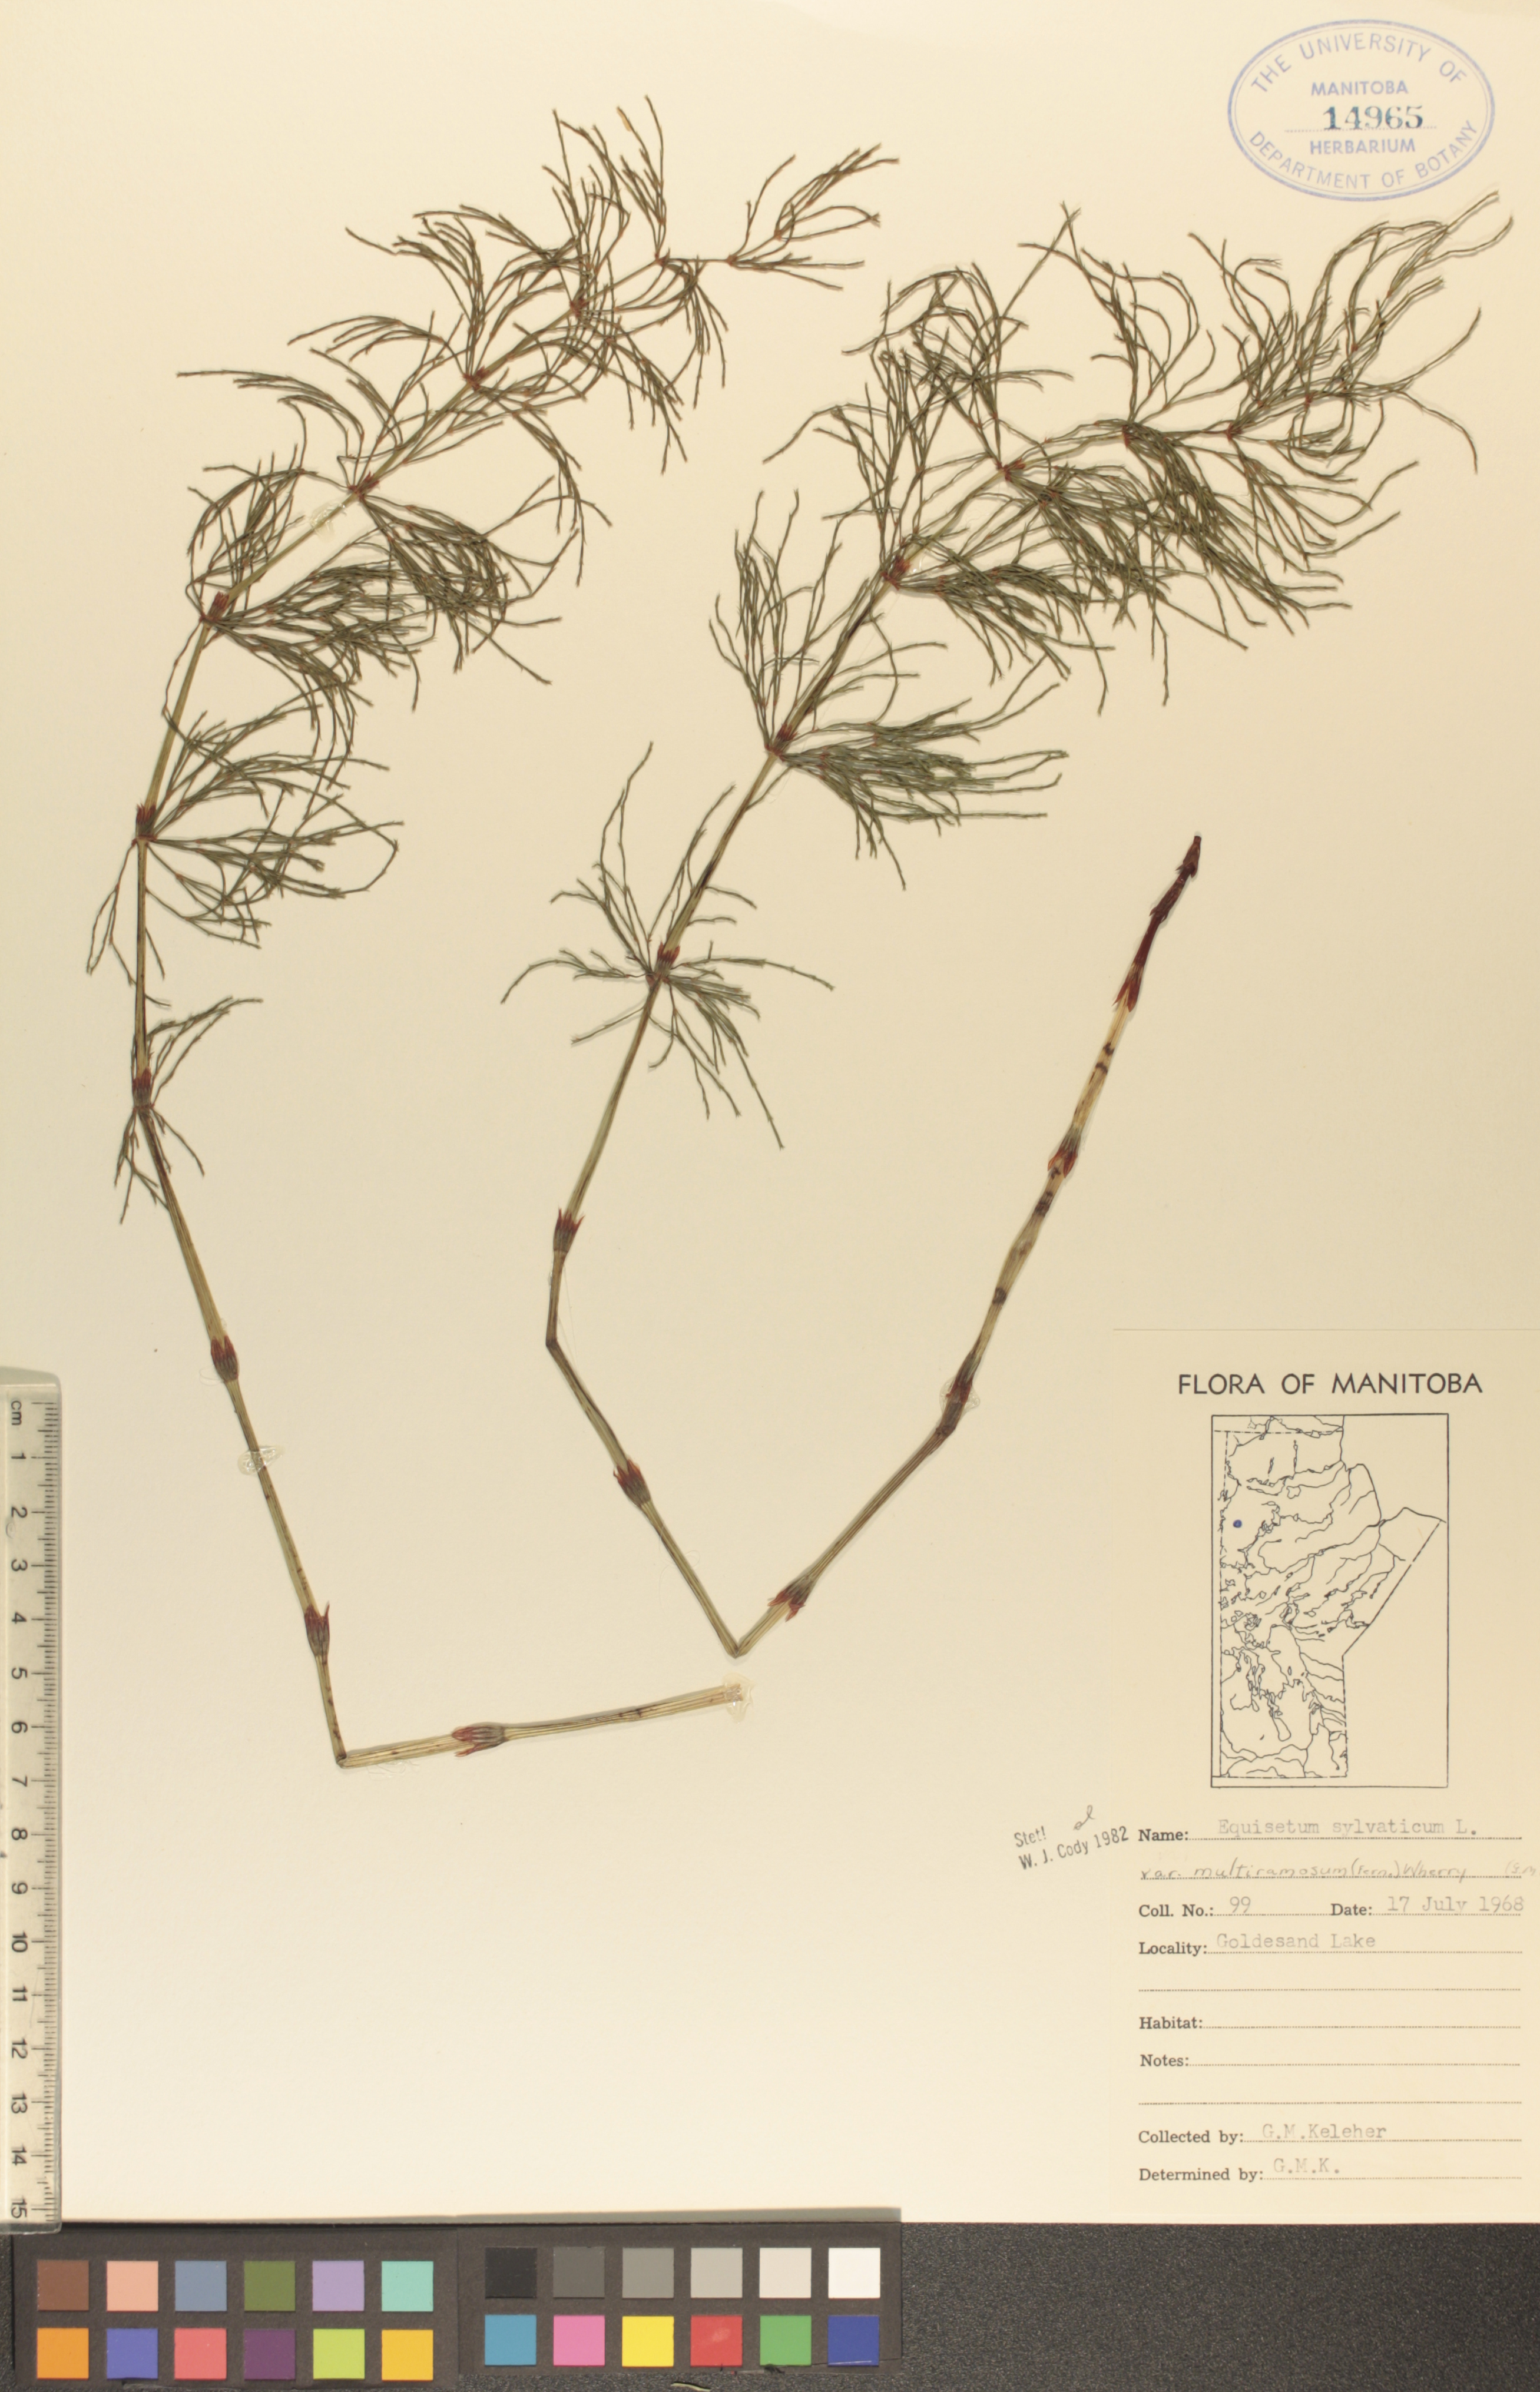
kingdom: Plantae
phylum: Tracheophyta
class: Polypodiopsida
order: Equisetales
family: Equisetaceae
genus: Equisetum
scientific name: Equisetum sylvaticum
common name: Wood horsetail
